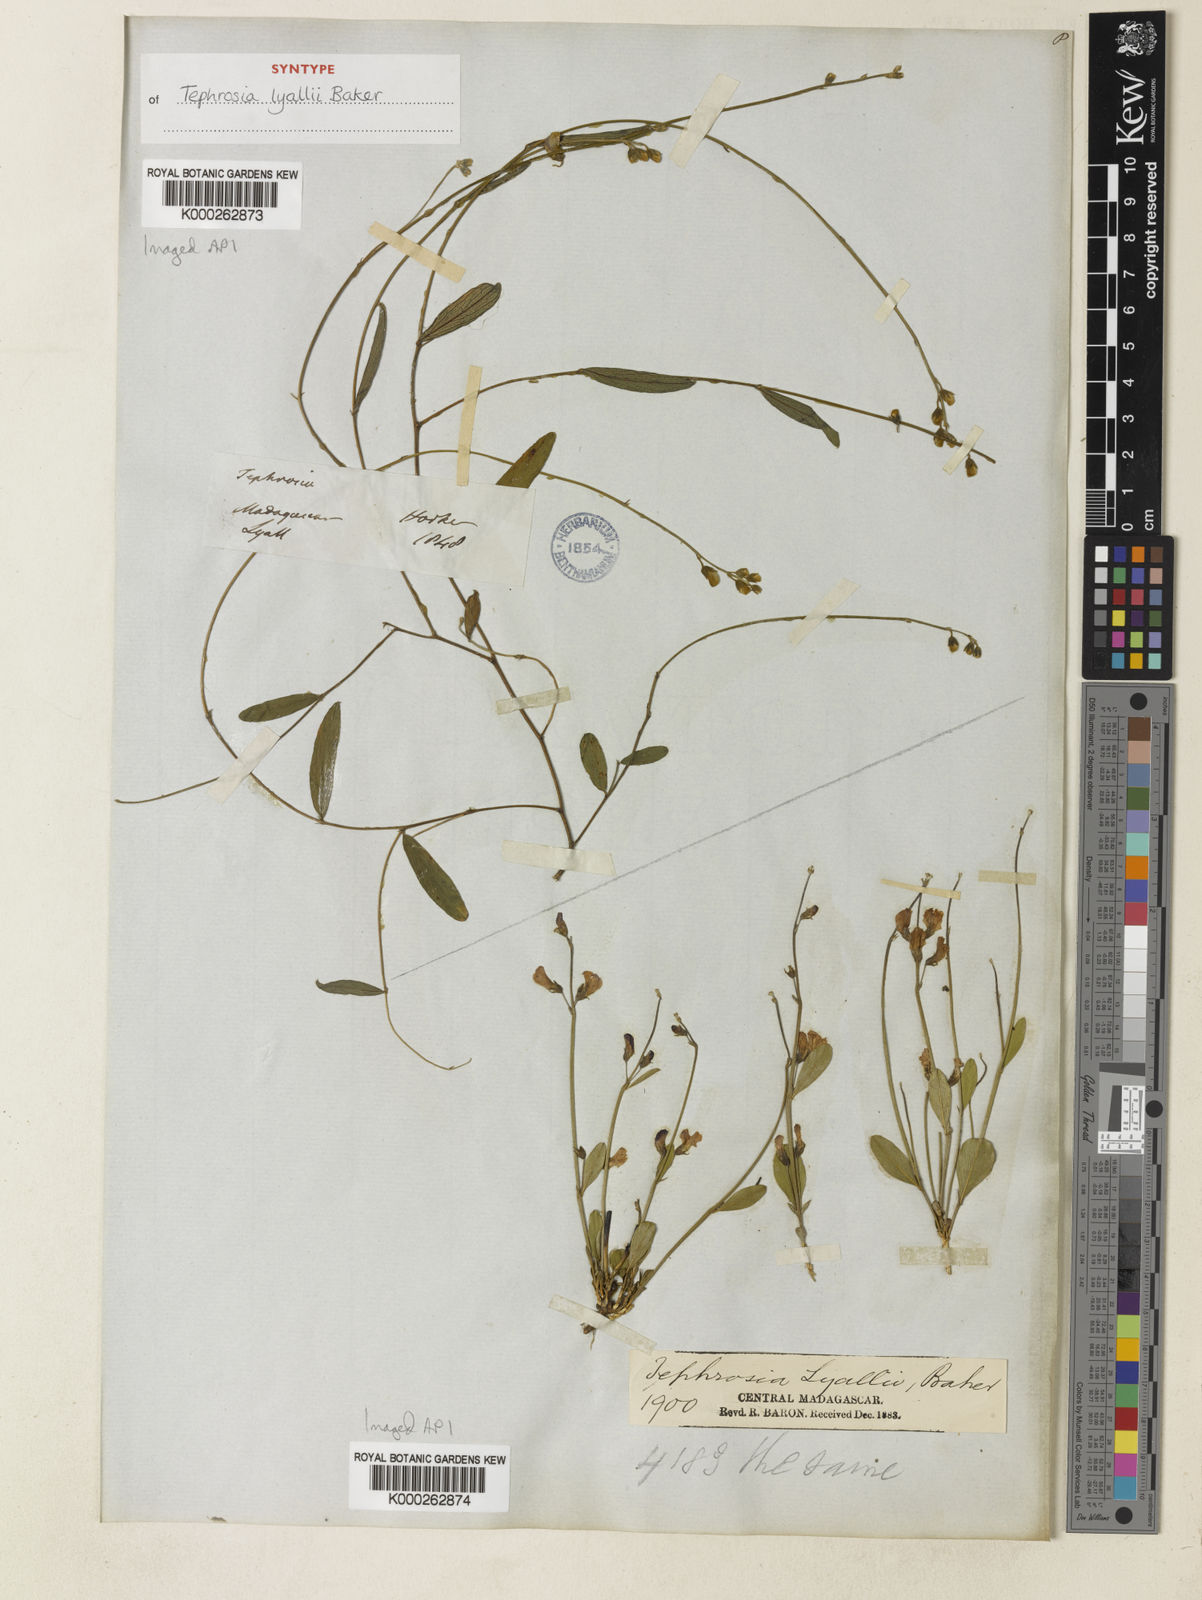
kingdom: Plantae
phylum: Tracheophyta
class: Magnoliopsida
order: Fabales
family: Fabaceae
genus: Tephrosia
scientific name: Tephrosia lyallii
